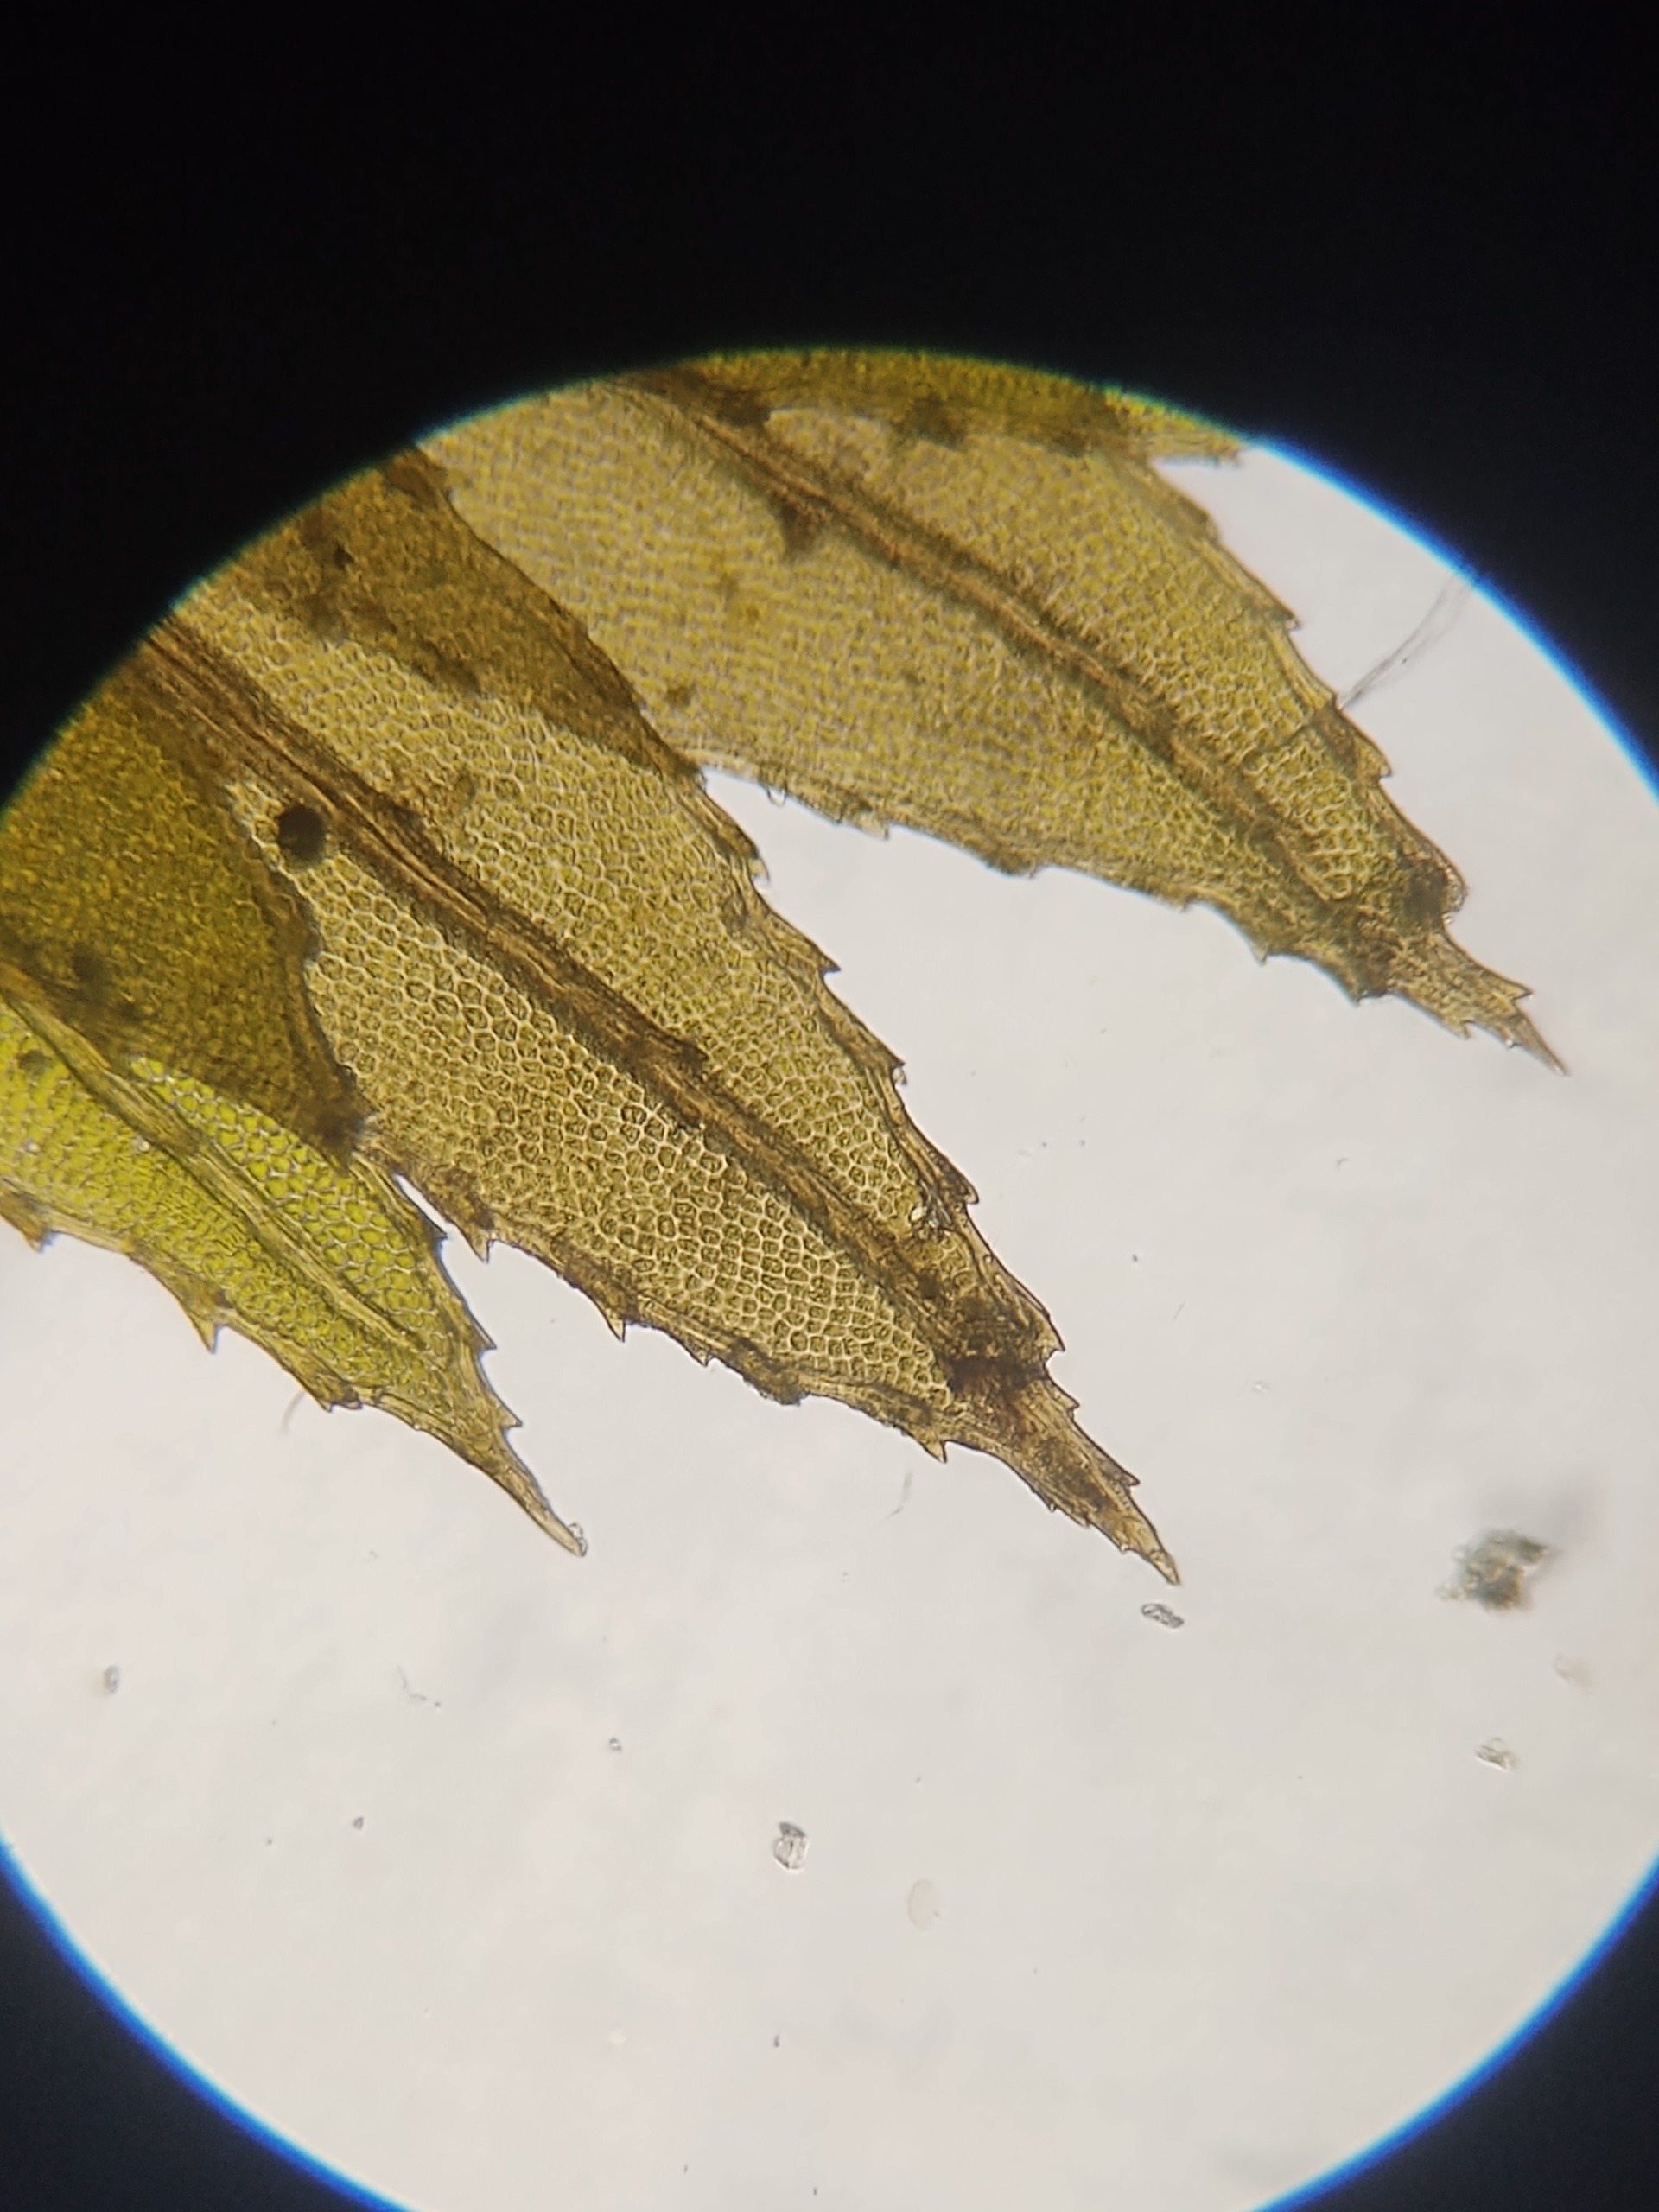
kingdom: Plantae
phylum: Bryophyta
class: Bryopsida
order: Bryales
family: Mniaceae
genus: Mnium
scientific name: Mnium hornum
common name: Brunfiltet stjernemos
